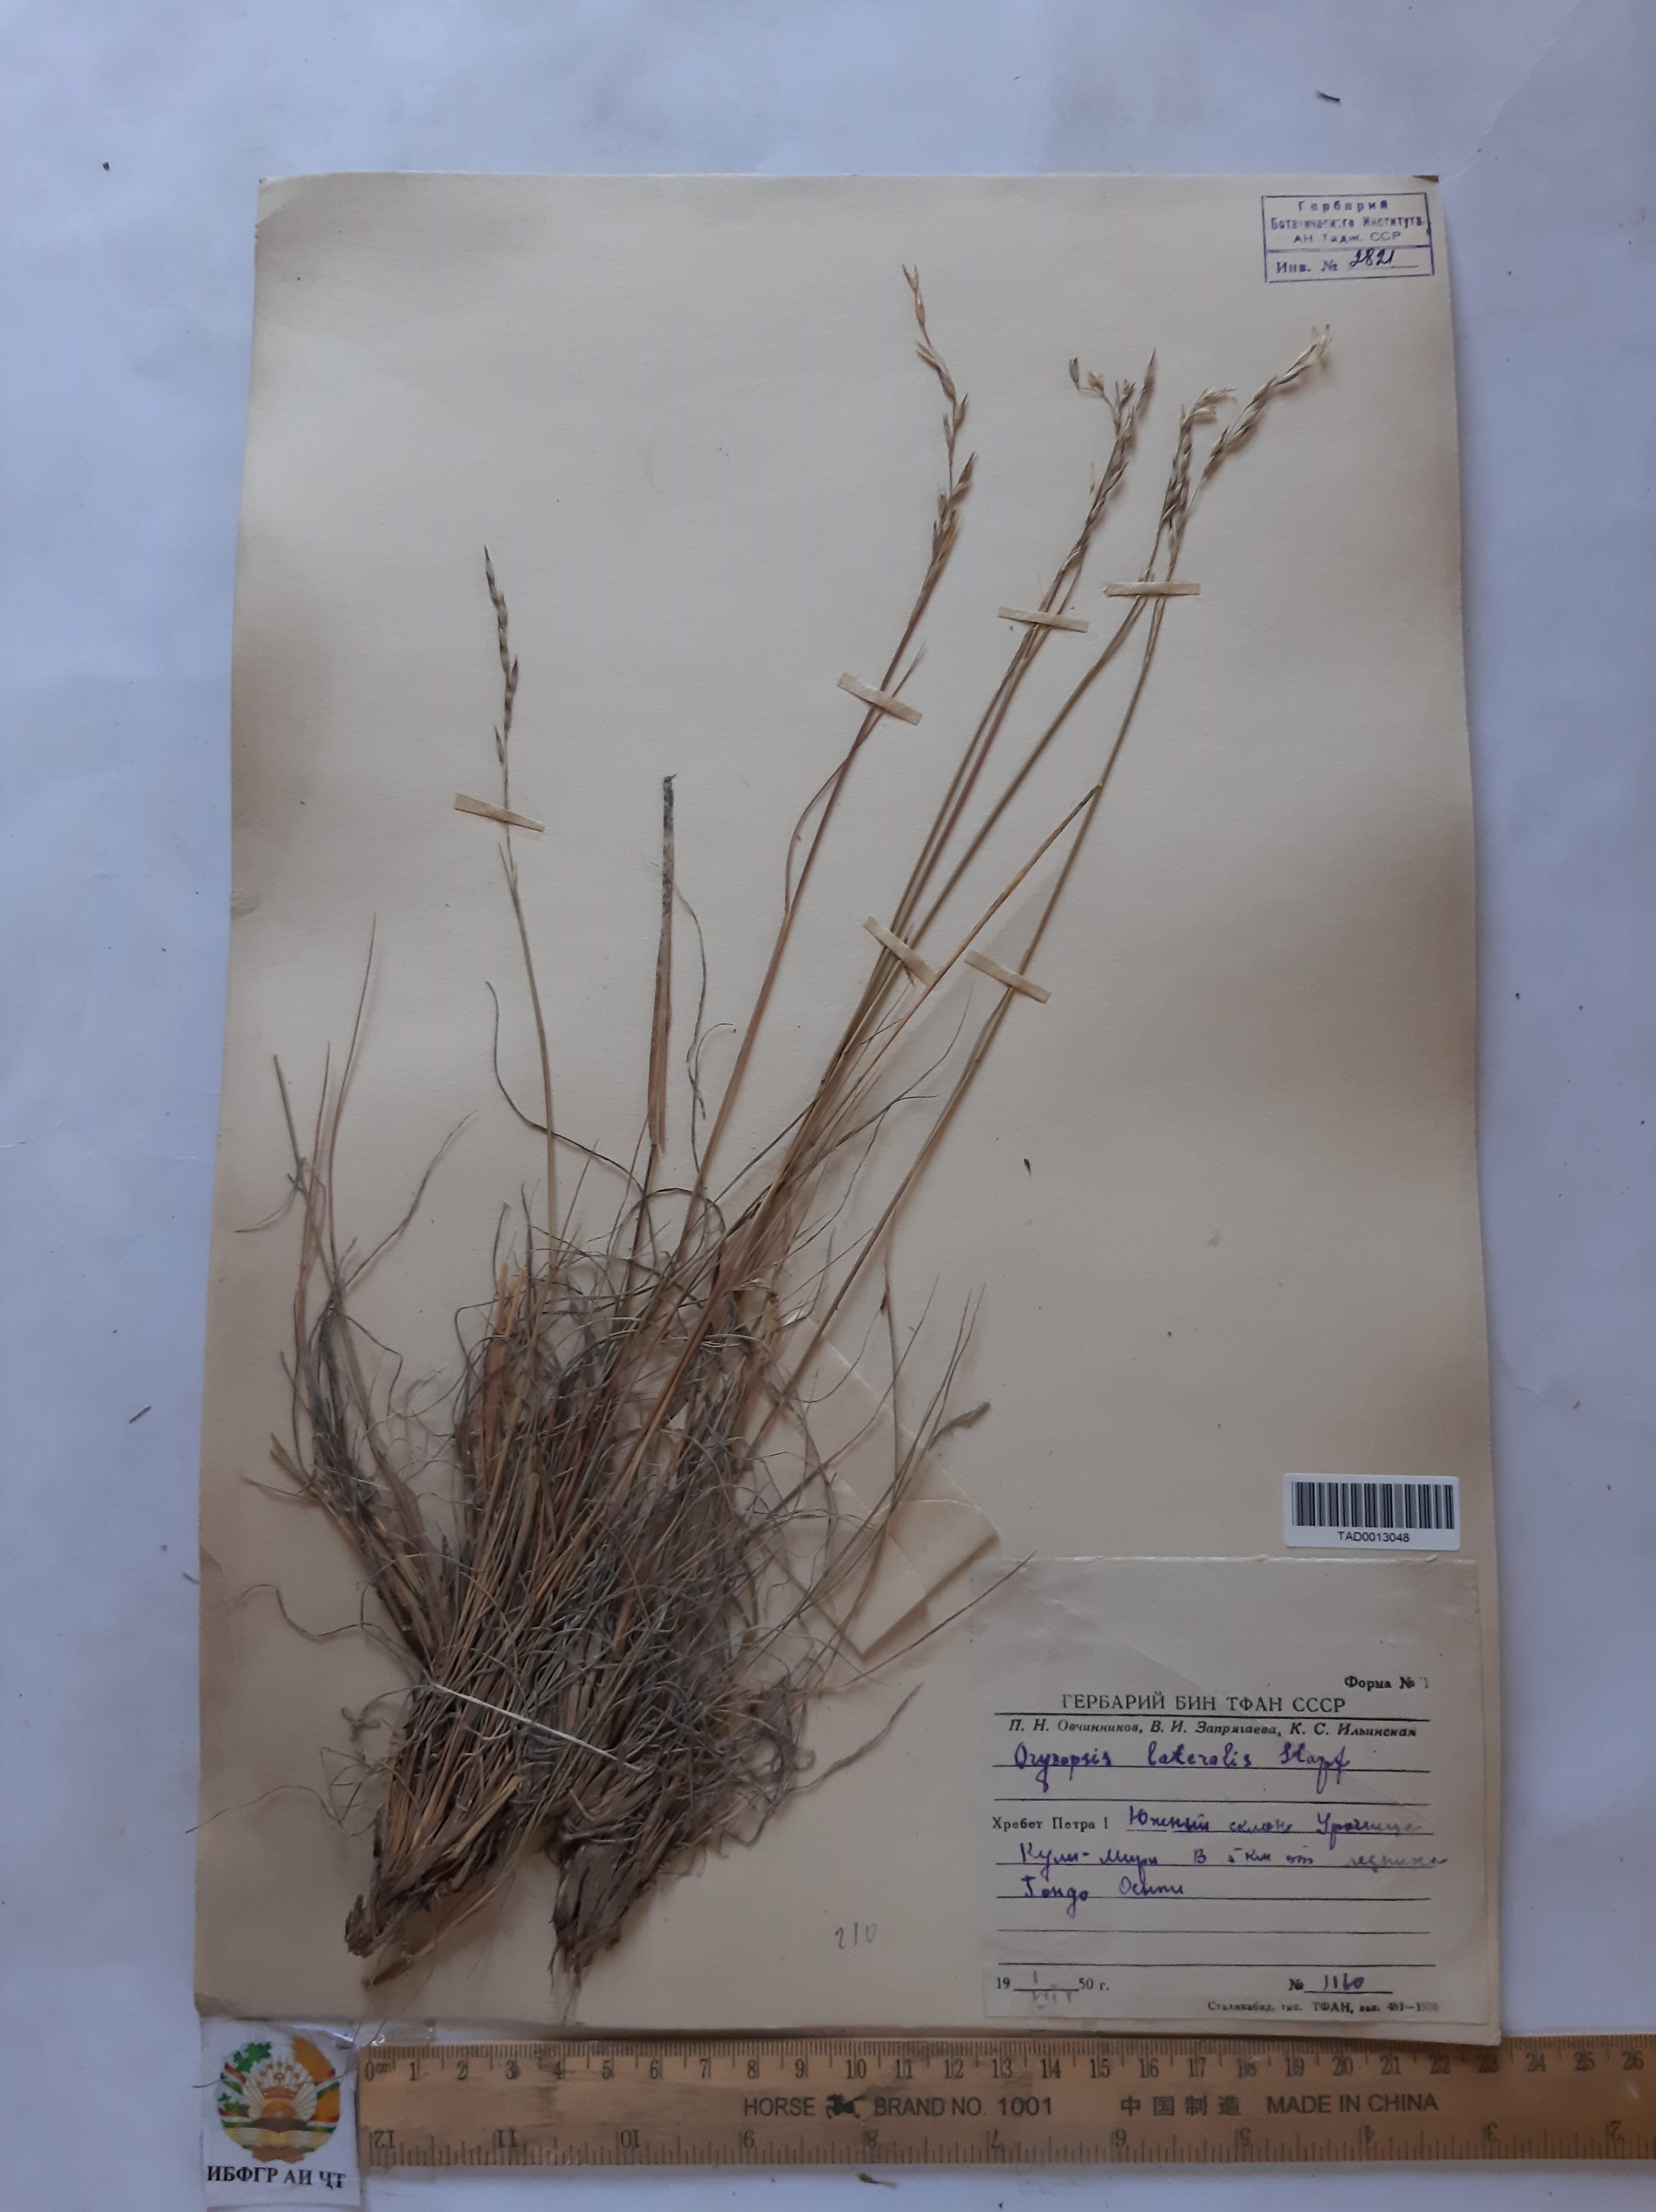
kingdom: Plantae
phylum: Tracheophyta
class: Liliopsida
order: Poales
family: Poaceae
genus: Piptatherum
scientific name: Piptatherum laterale
